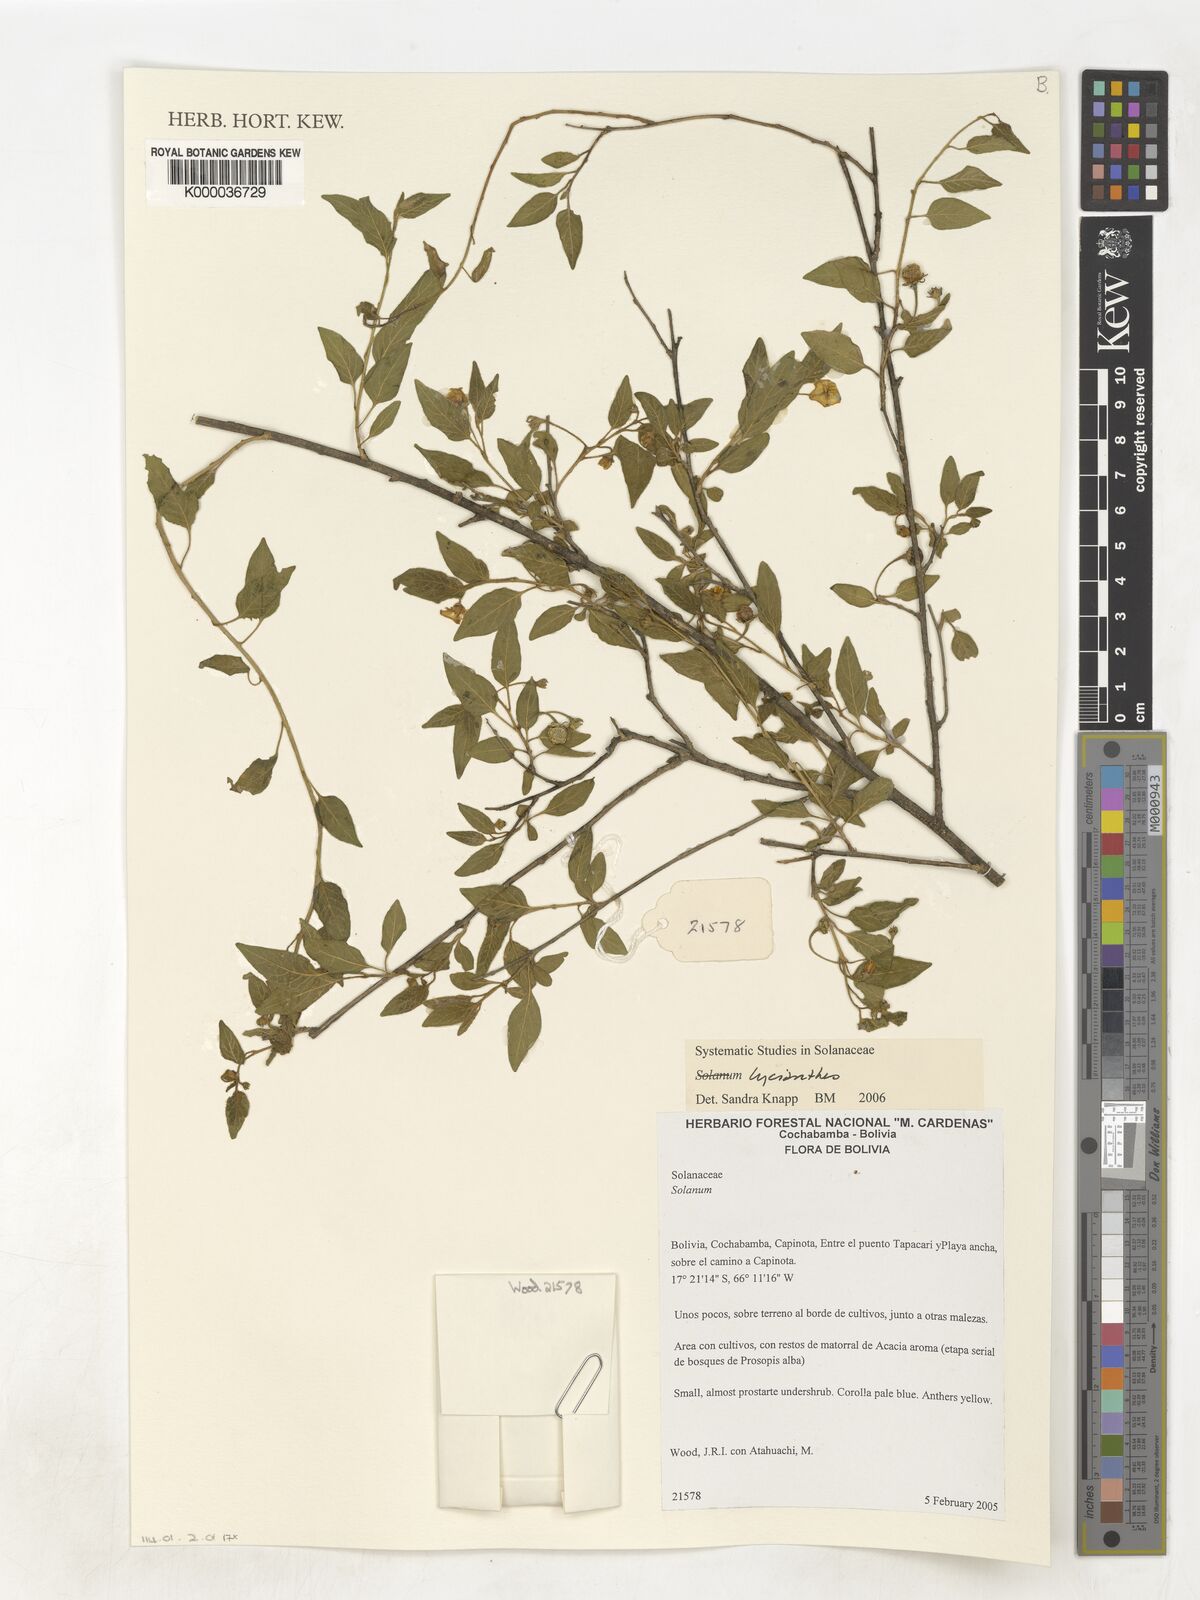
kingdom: Plantae
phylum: Tracheophyta
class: Magnoliopsida
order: Solanales
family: Solanaceae
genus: Lycianthes
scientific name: Lycianthes
